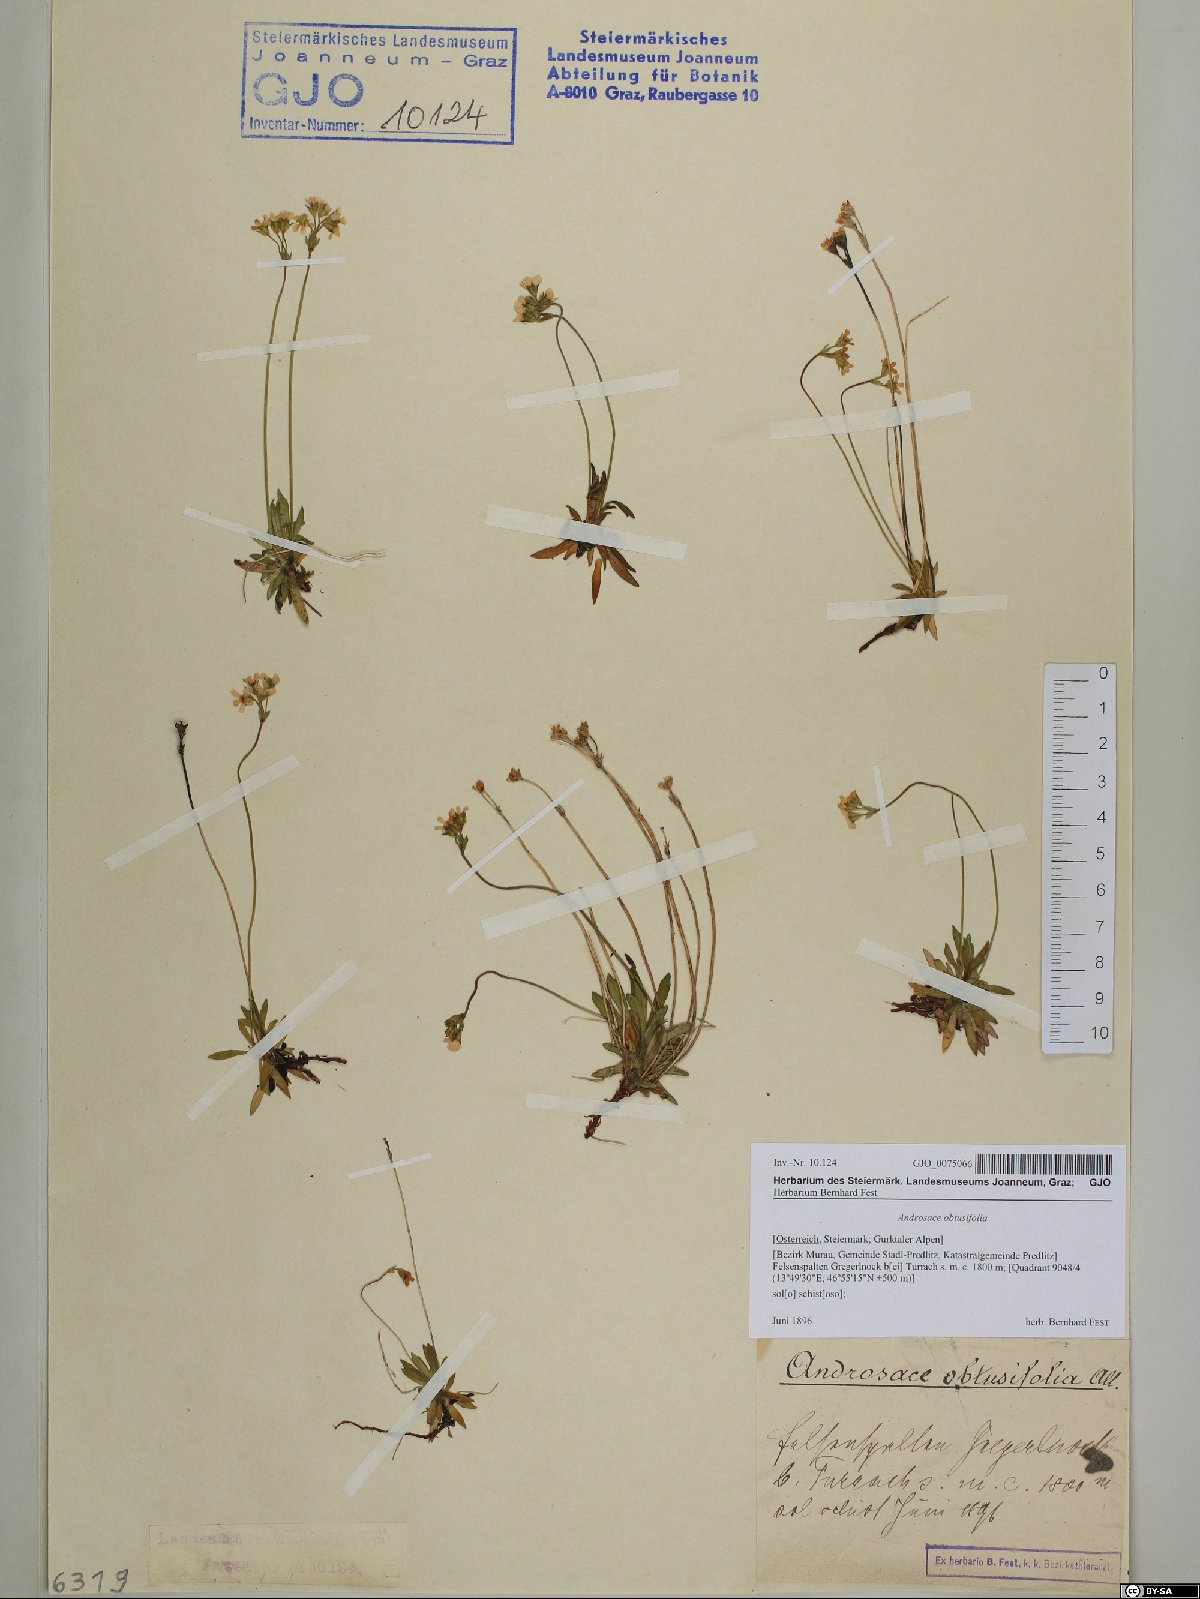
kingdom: Plantae
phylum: Tracheophyta
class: Magnoliopsida
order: Ericales
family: Primulaceae
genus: Androsace
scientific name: Androsace obtusifolia
